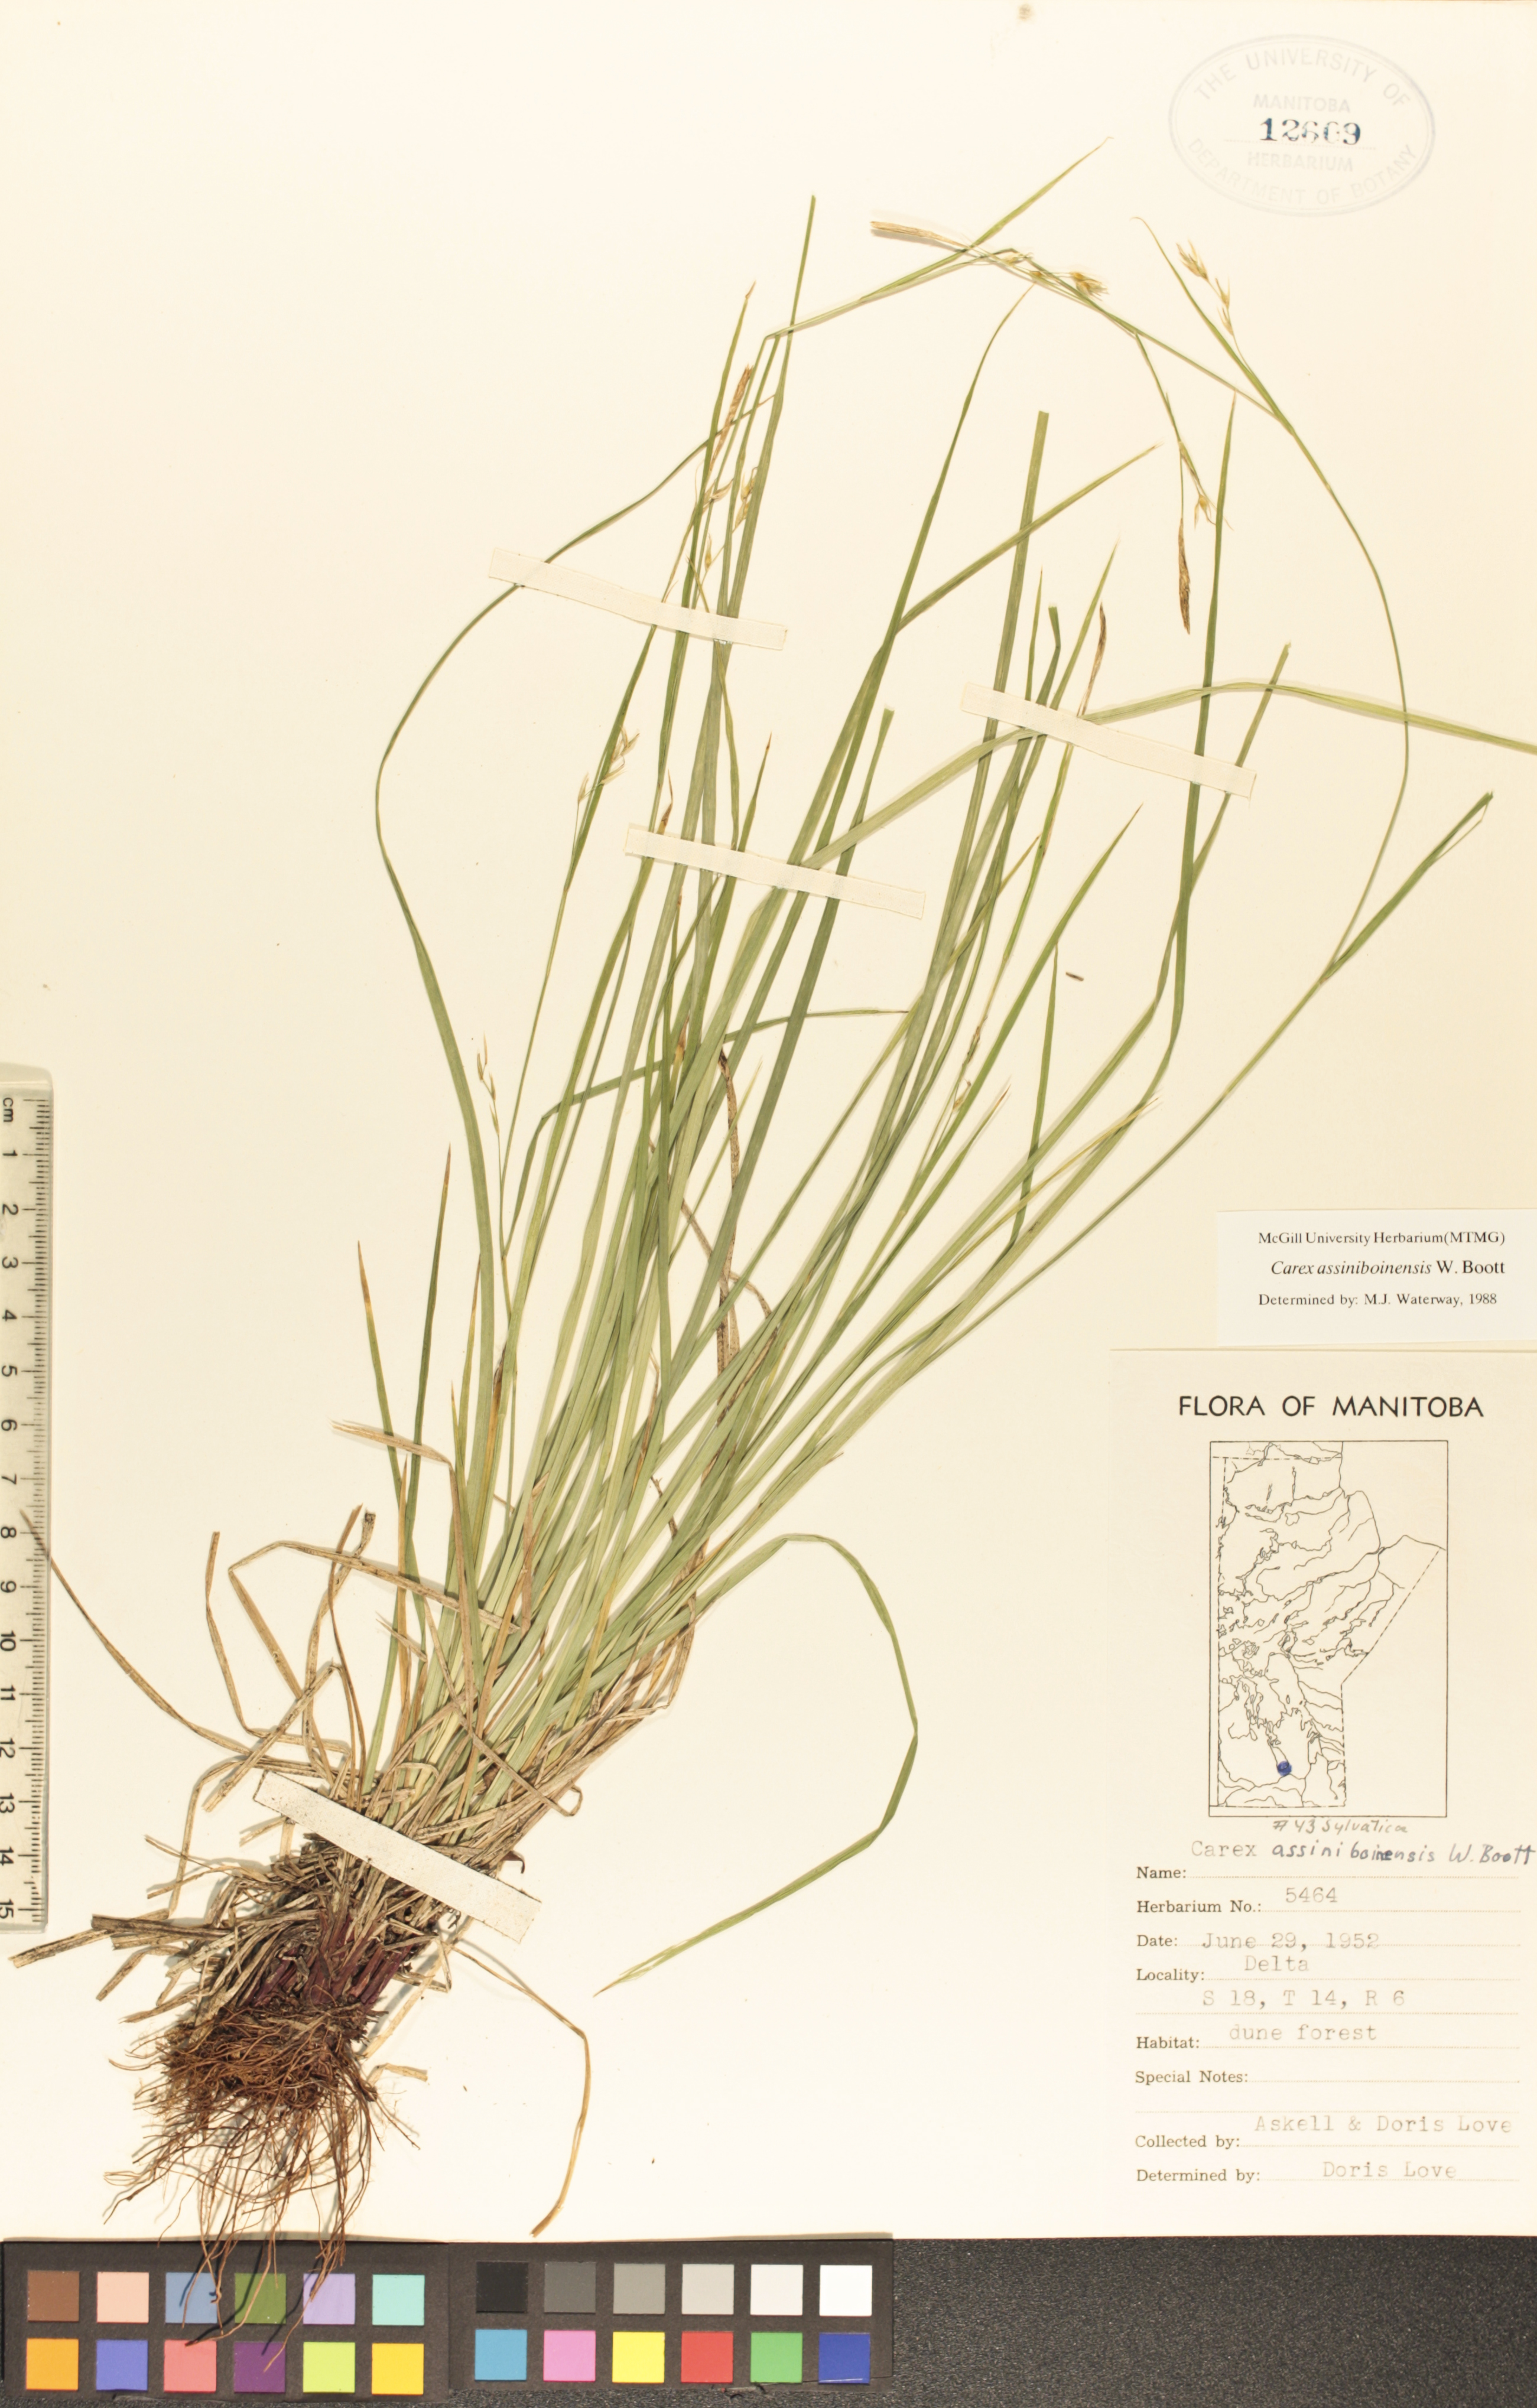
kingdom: Plantae
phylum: Tracheophyta
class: Liliopsida
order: Poales
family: Cyperaceae
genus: Carex
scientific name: Carex assiniboinensis
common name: Assiniboia sedge
